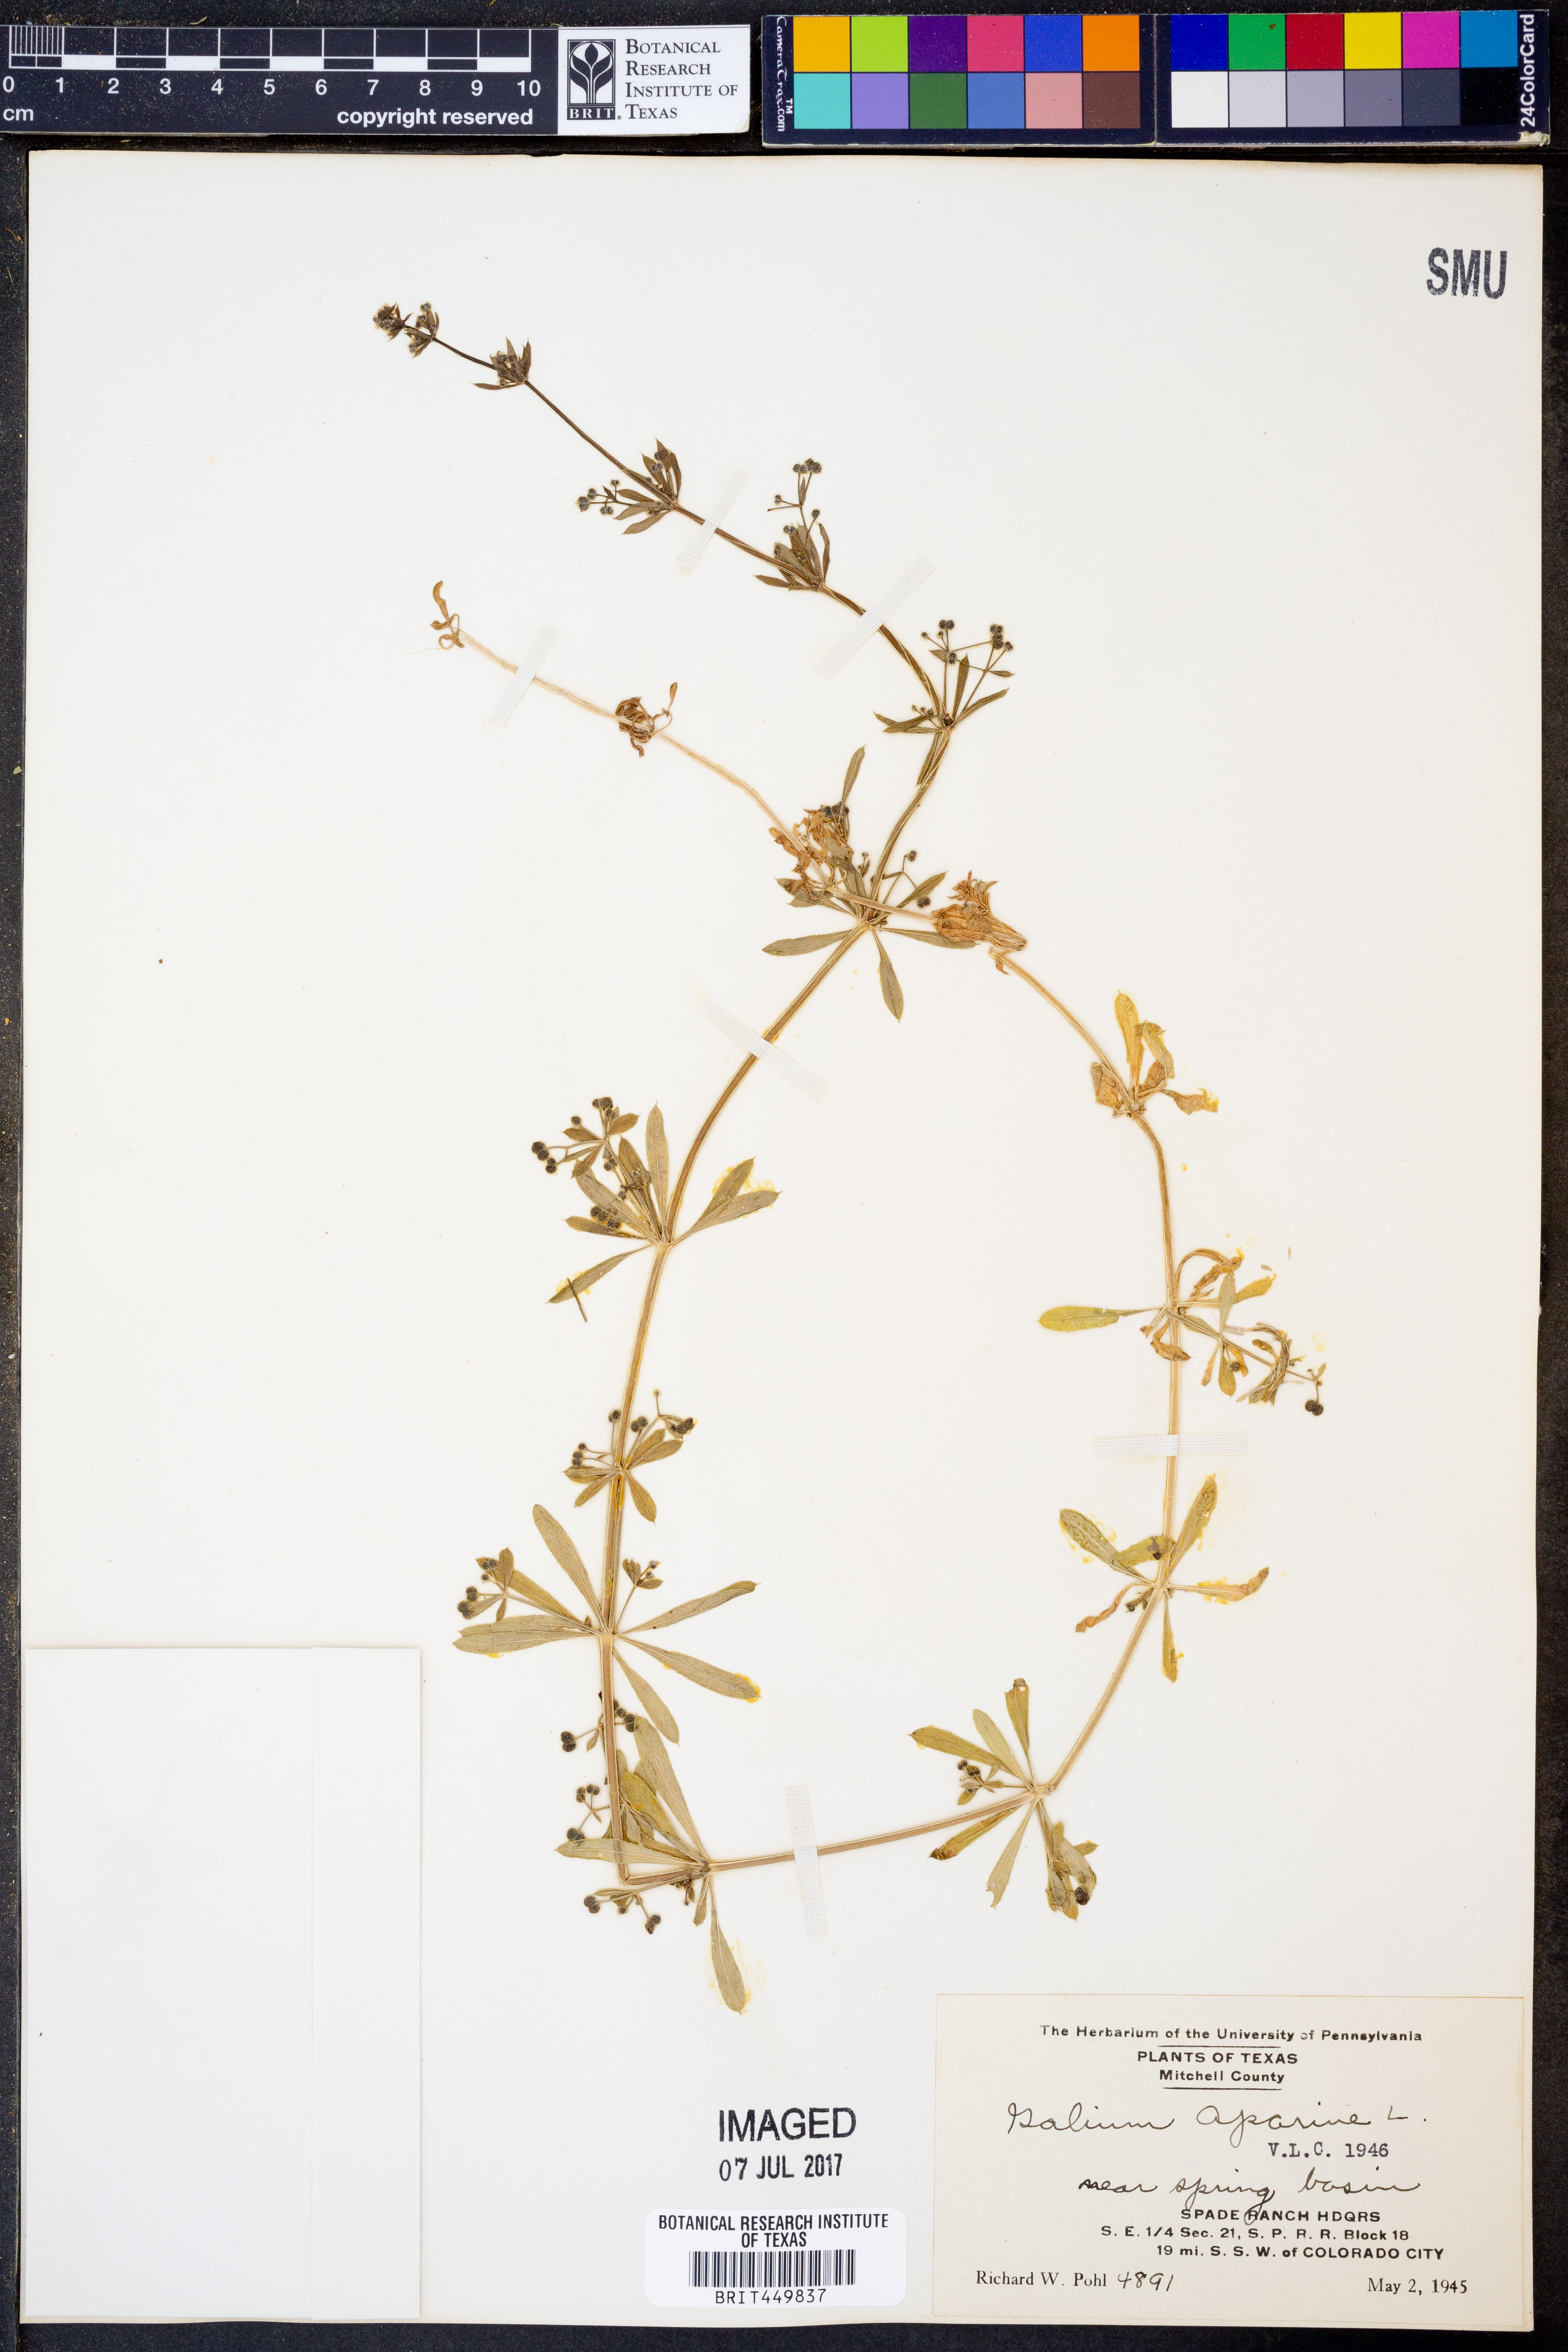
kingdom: Plantae
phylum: Tracheophyta
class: Magnoliopsida
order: Gentianales
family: Rubiaceae
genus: Galium
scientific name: Galium aparine
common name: Cleavers
